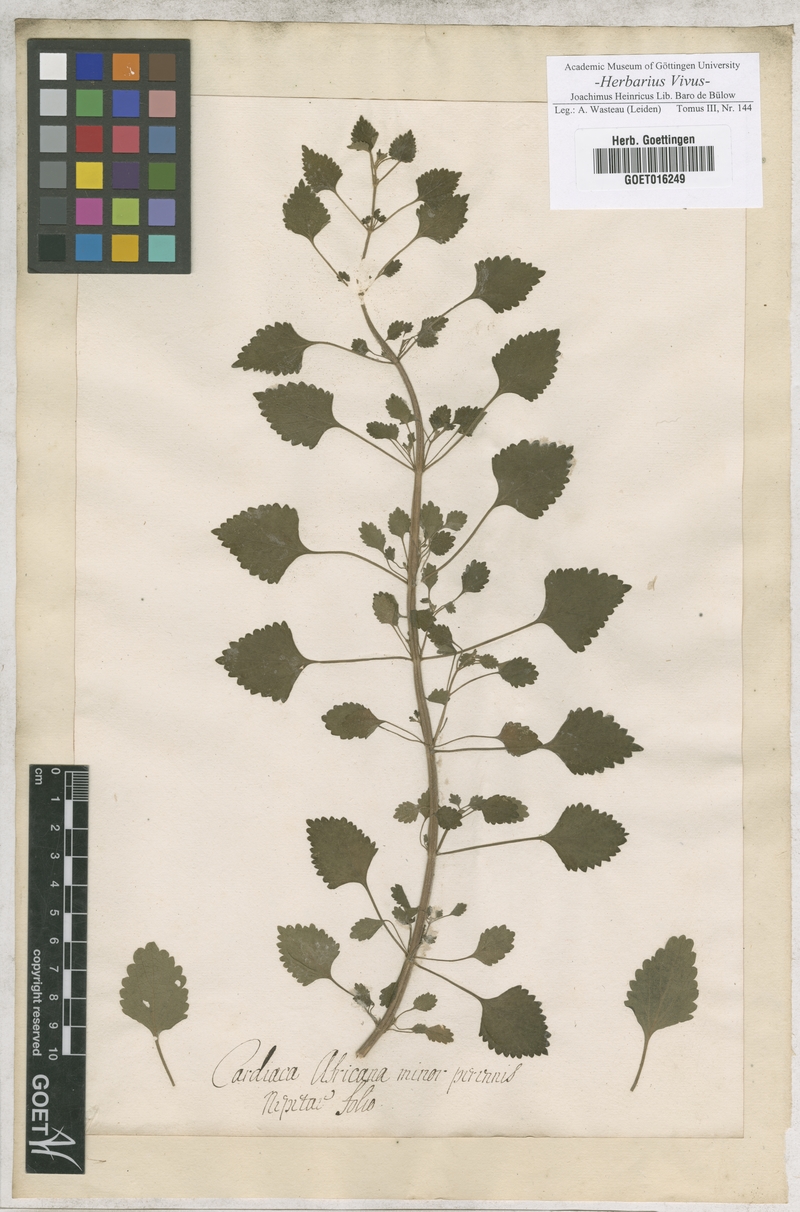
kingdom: Plantae
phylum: Tracheophyta
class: Magnoliopsida
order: Lamiales
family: Lamiaceae
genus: Leonurus
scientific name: Leonurus
